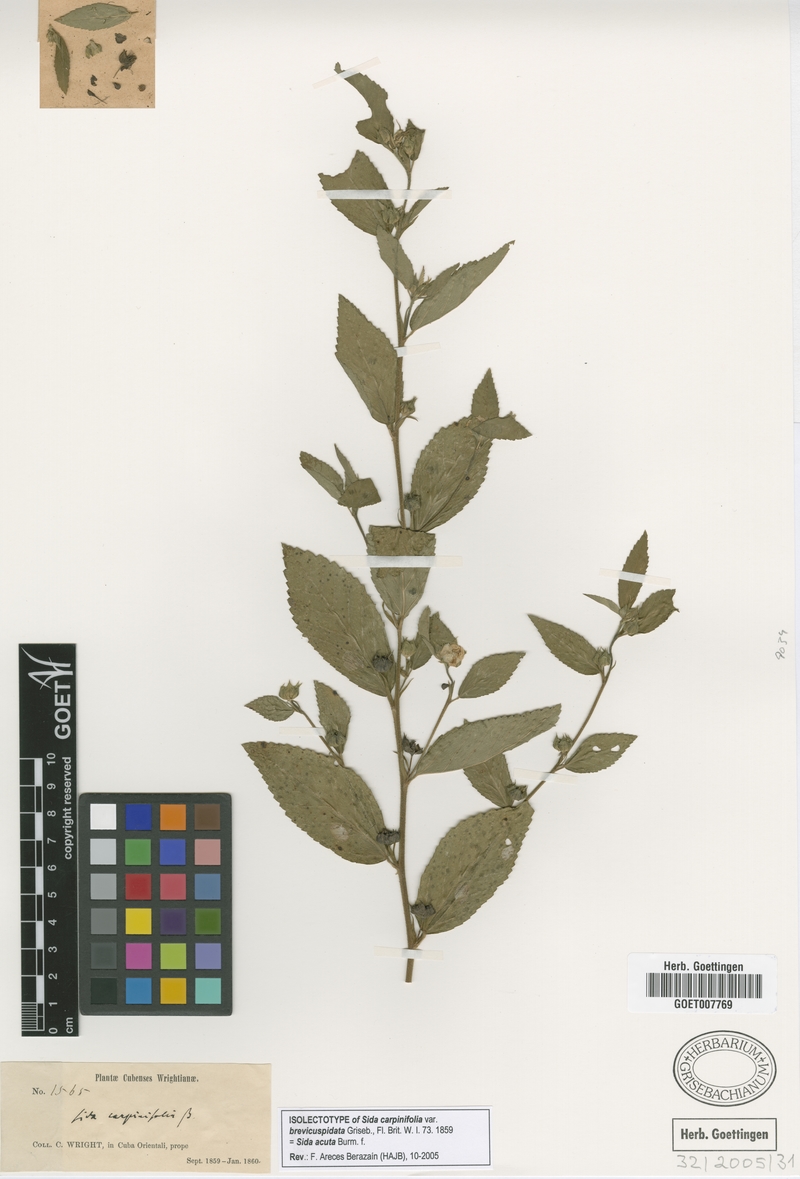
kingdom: Plantae
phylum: Tracheophyta
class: Magnoliopsida
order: Malvales
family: Malvaceae
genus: Sida
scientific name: Sida acuta
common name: Common wireweed
